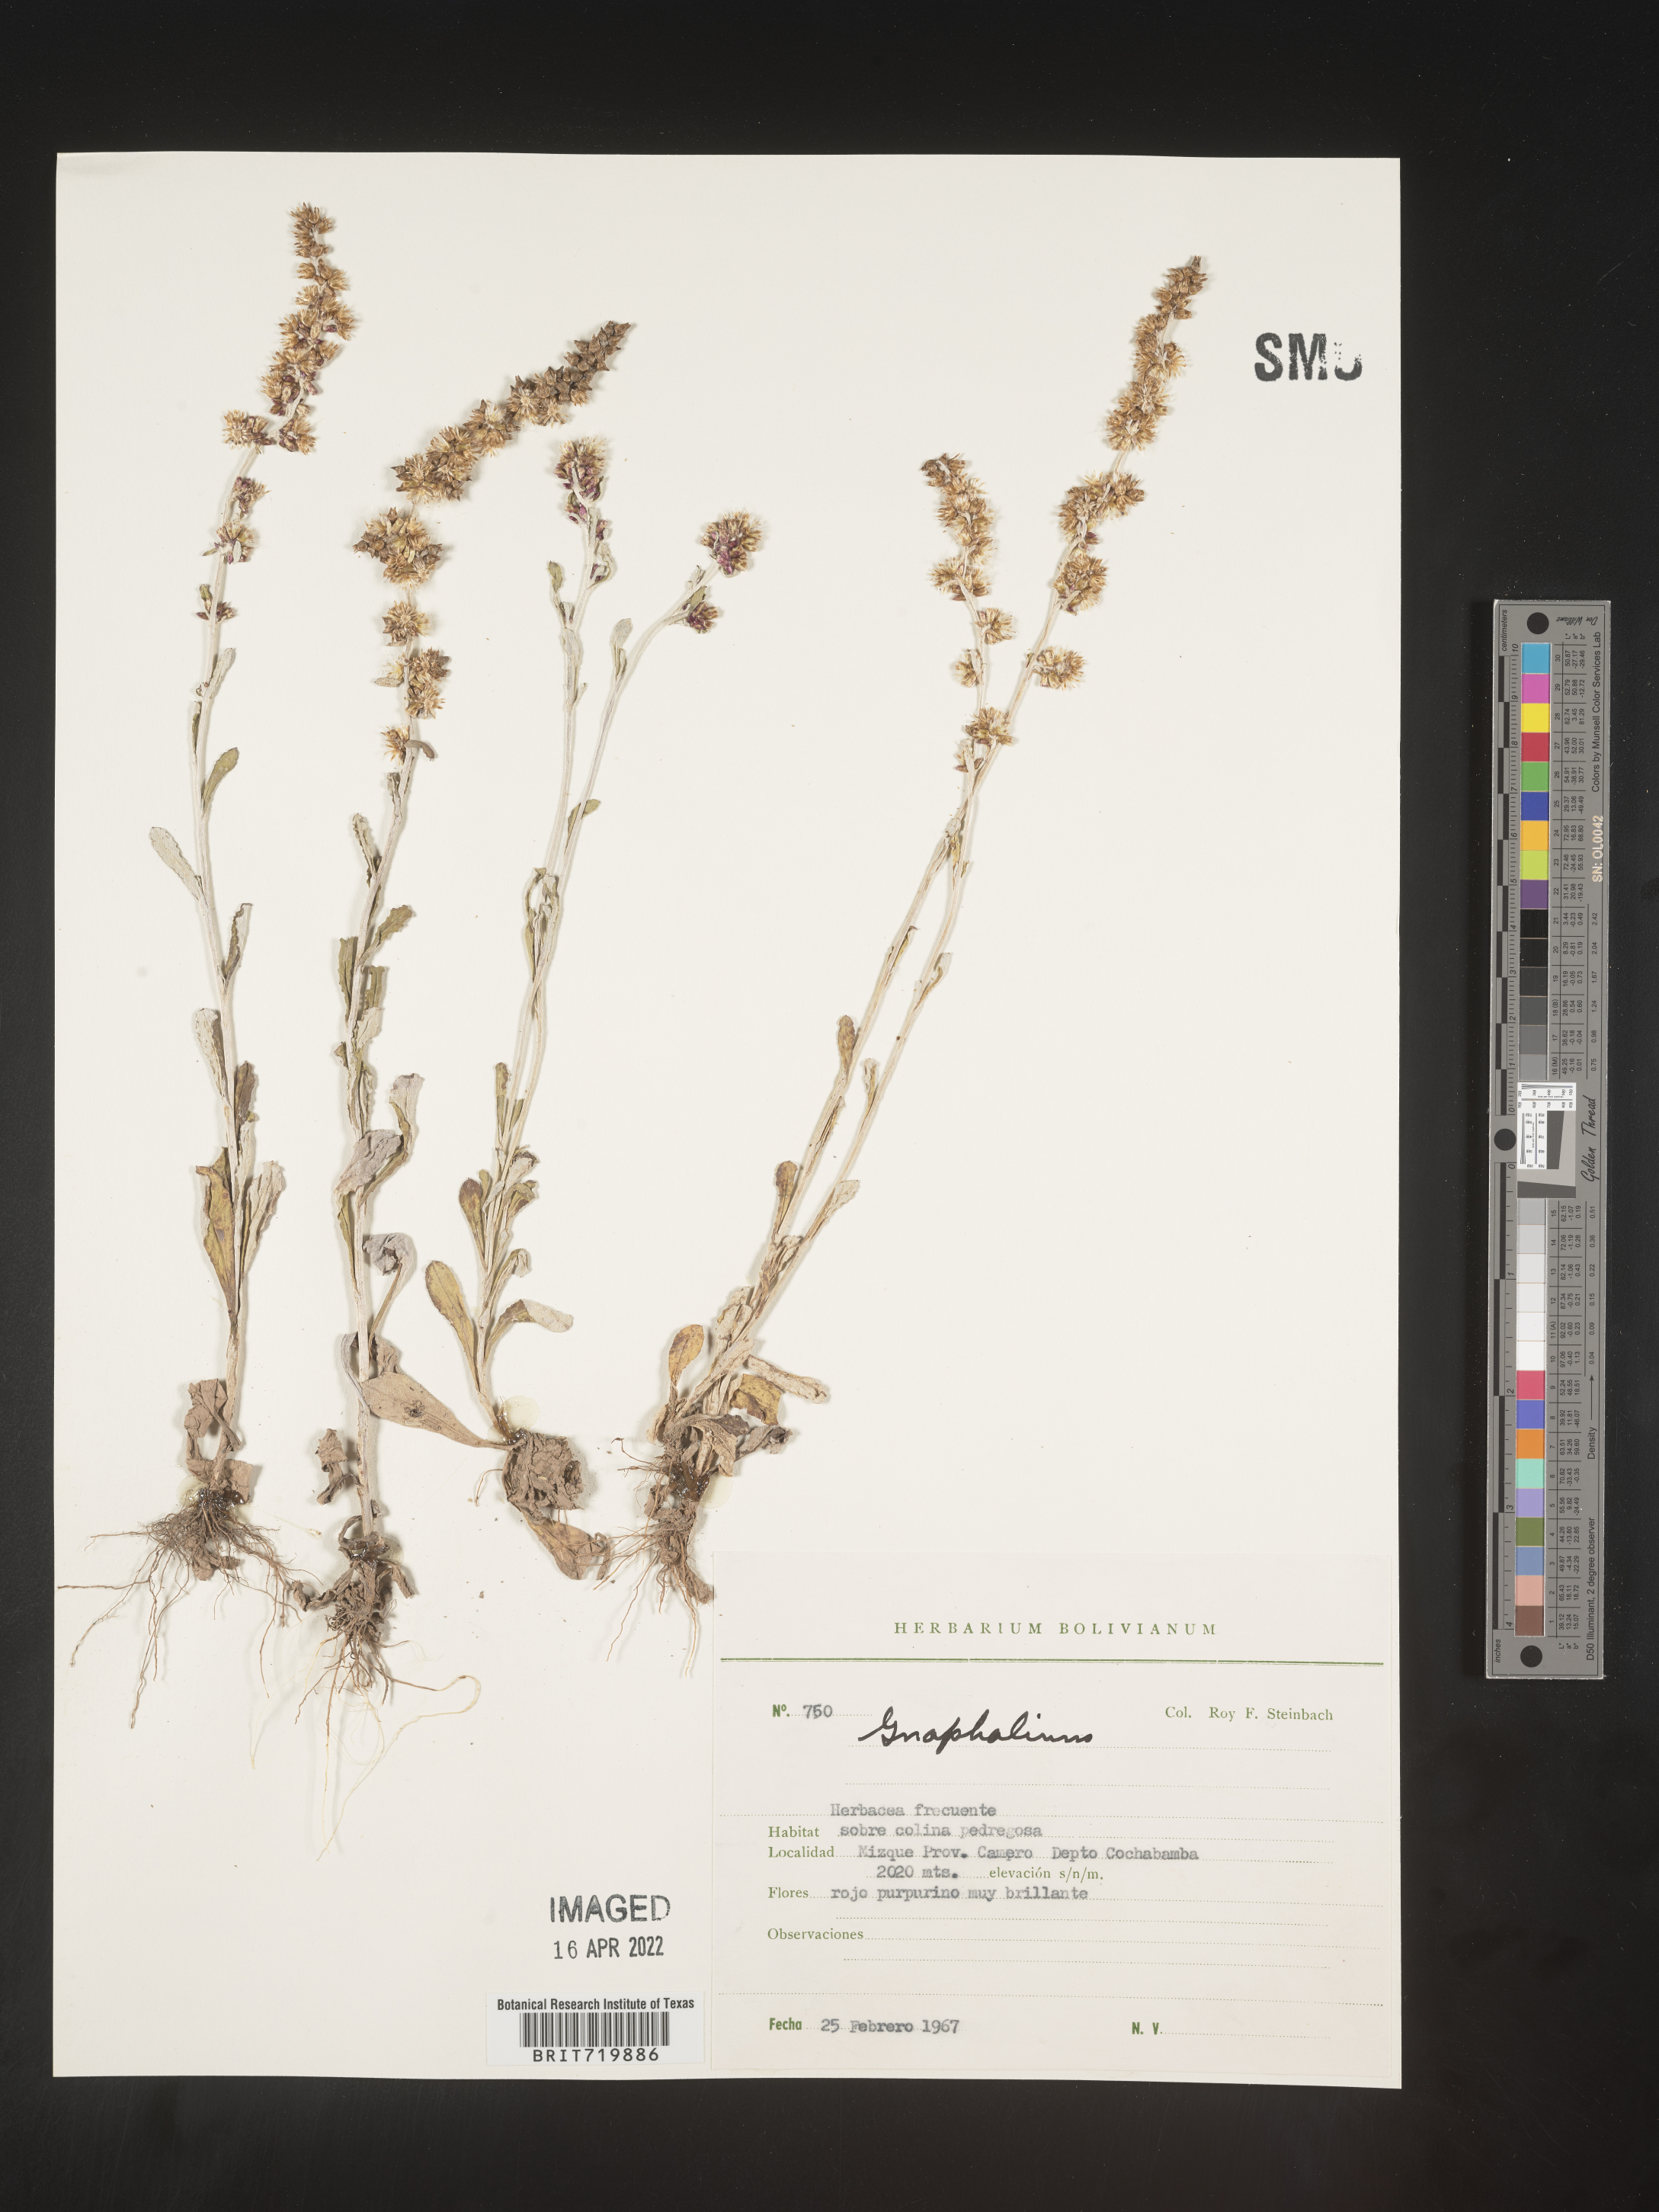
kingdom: Plantae
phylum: Tracheophyta
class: Magnoliopsida
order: Asterales
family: Asteraceae
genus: Gamochaeta
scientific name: Gamochaeta
